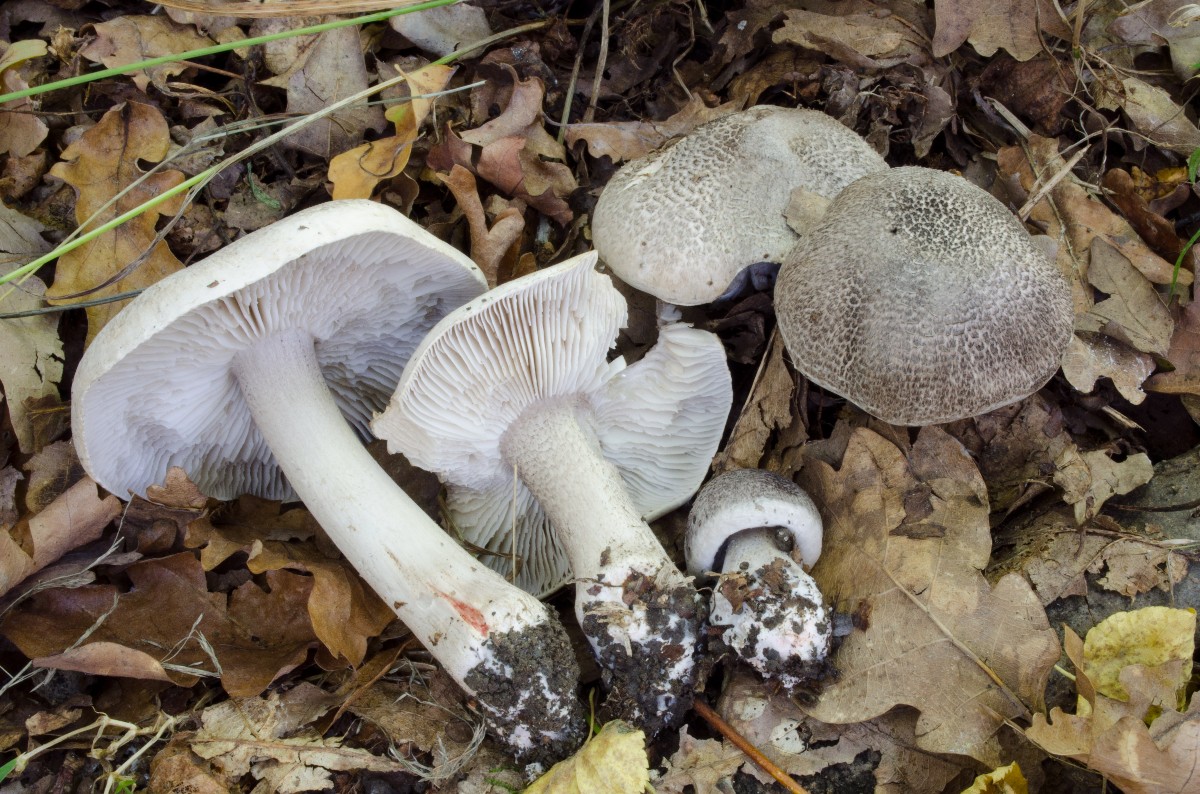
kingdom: Fungi
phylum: Basidiomycota
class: Agaricomycetes
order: Agaricales
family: Tricholomataceae
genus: Tricholoma
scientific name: Tricholoma basirubens
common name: rødfodet ridderhat
